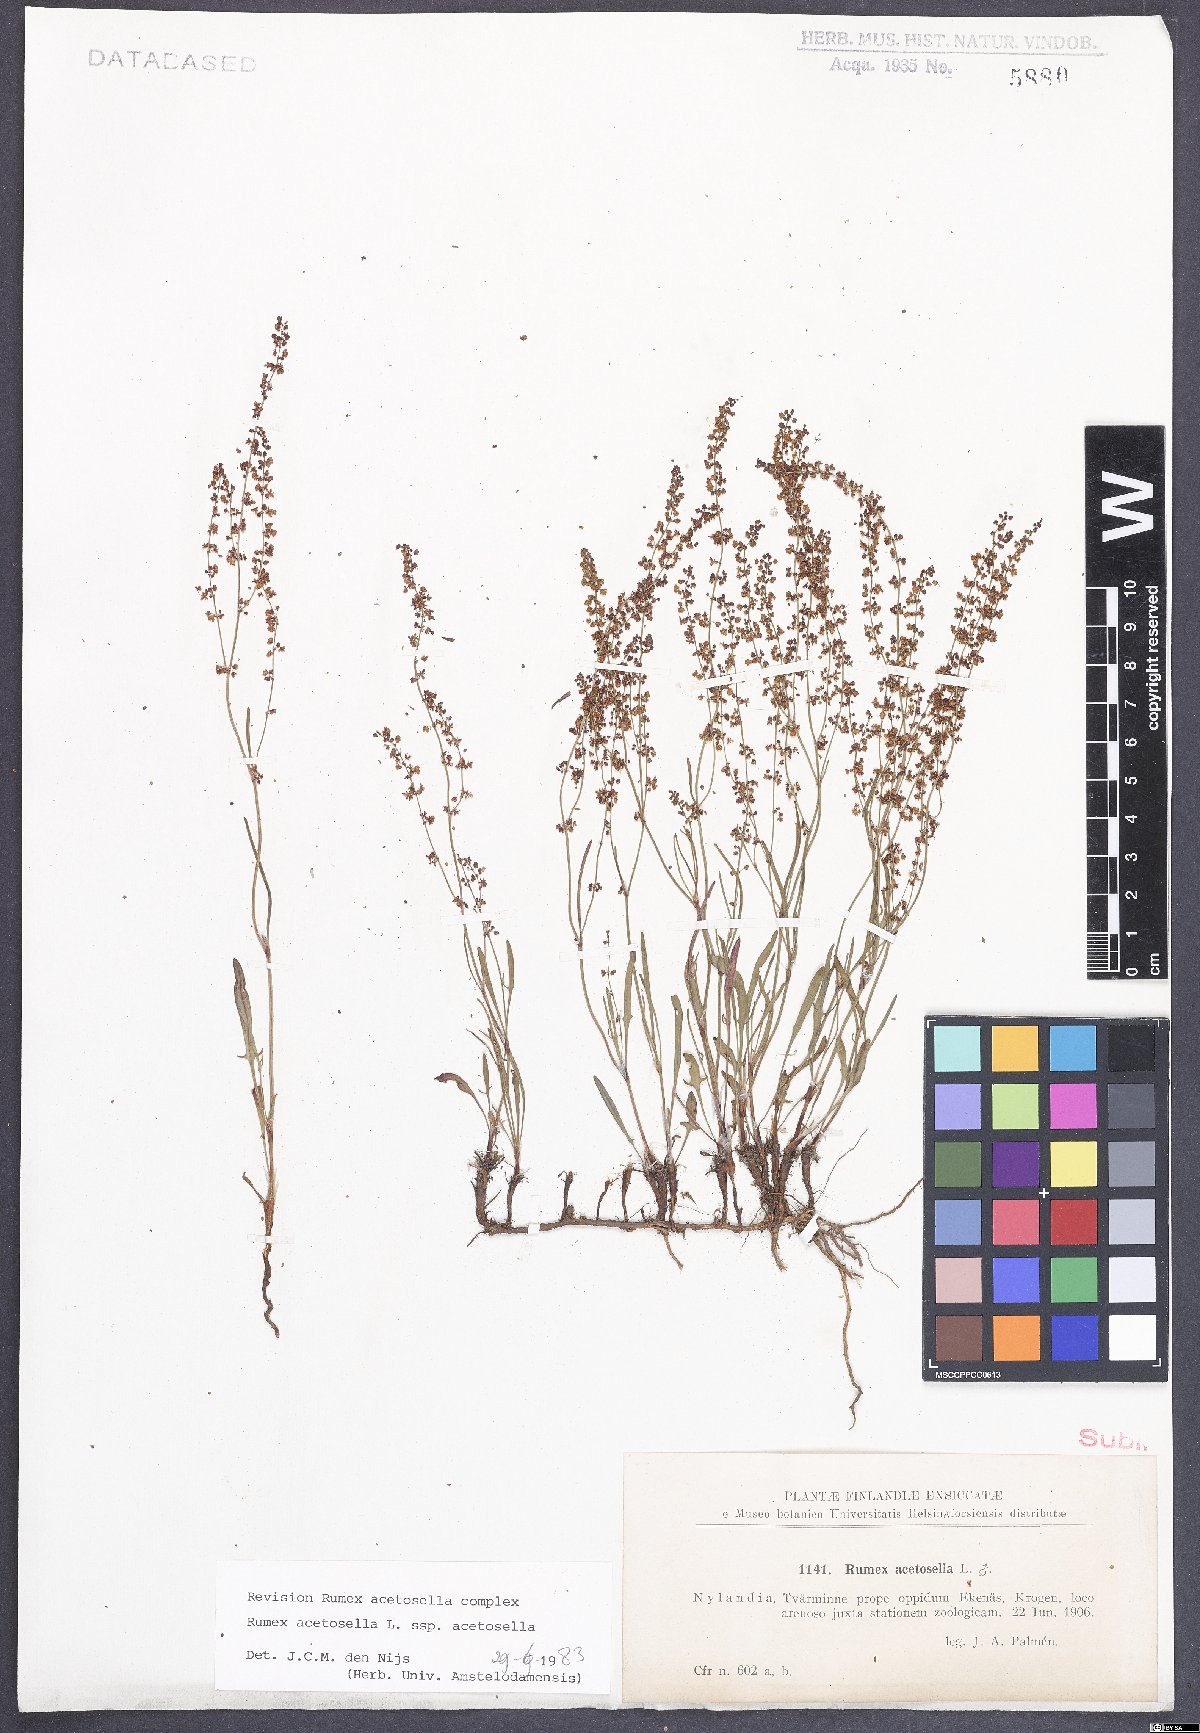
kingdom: Plantae
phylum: Tracheophyta
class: Magnoliopsida
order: Caryophyllales
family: Polygonaceae
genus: Rumex
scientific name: Rumex acetosella
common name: Common sheep sorrel
